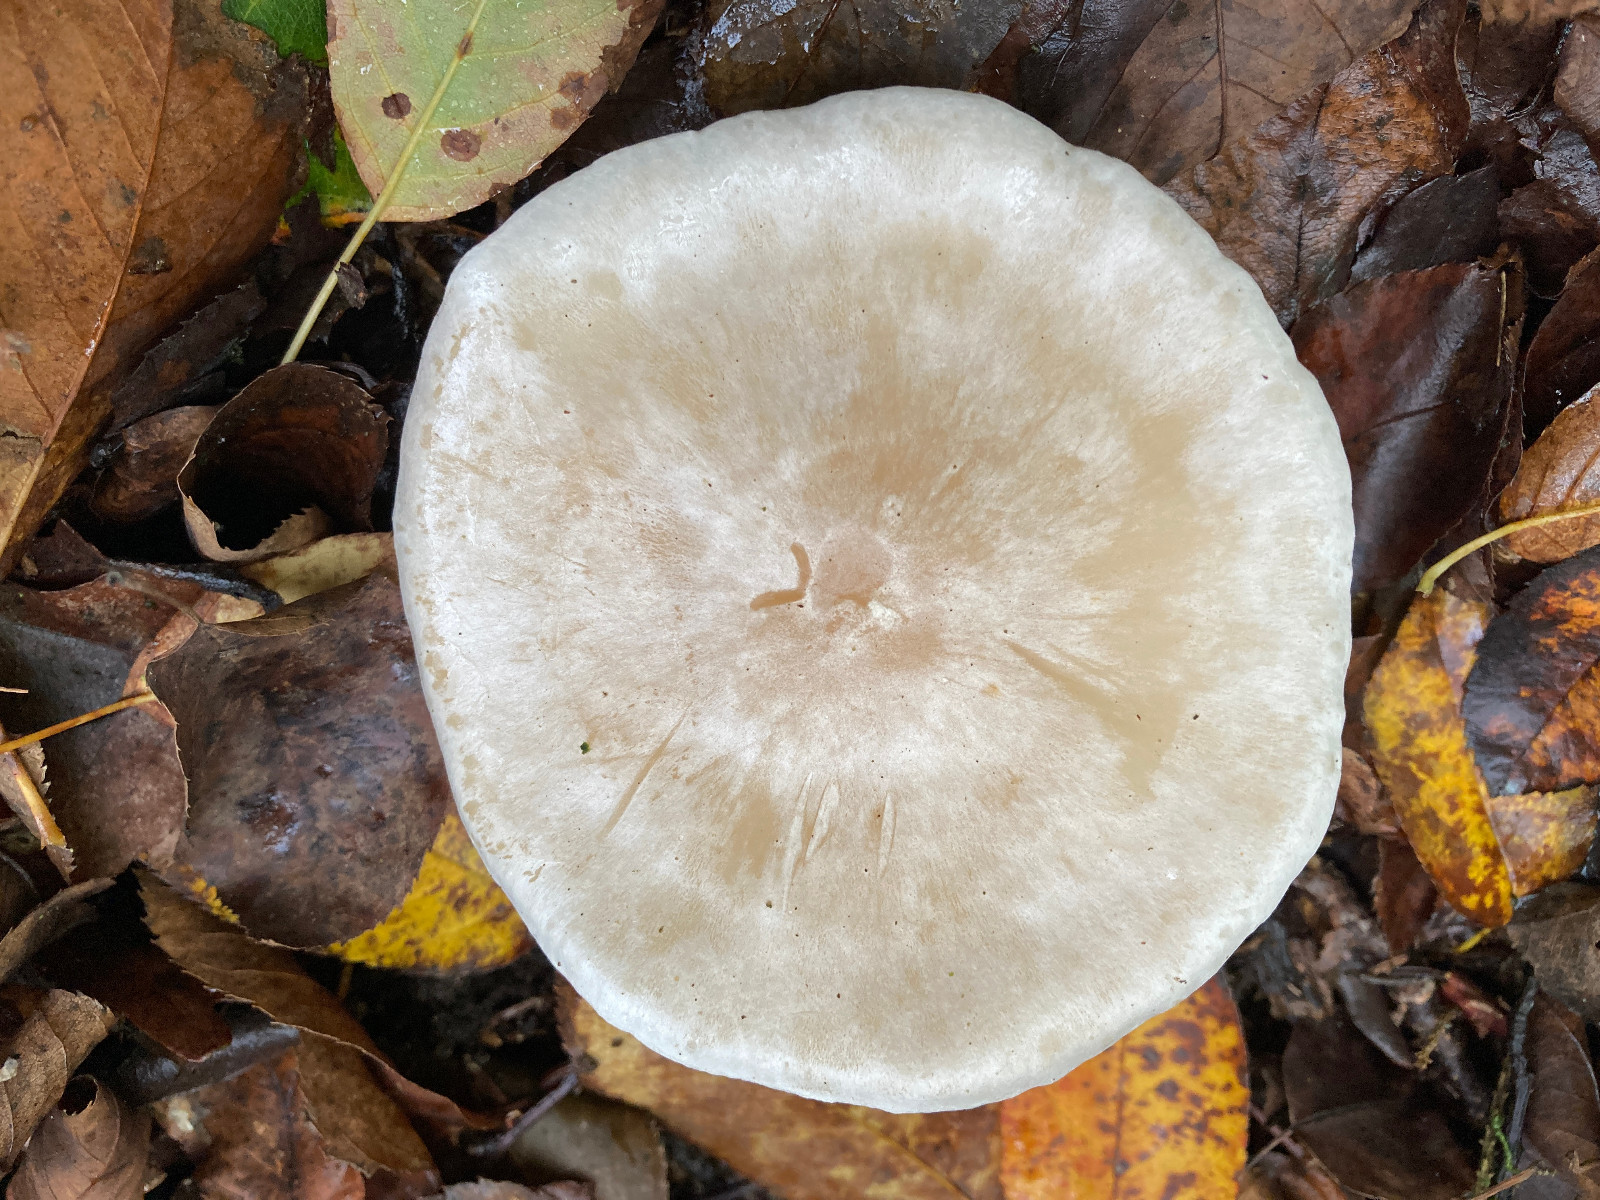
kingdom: Fungi
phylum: Basidiomycota
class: Agaricomycetes
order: Agaricales
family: Tricholomataceae
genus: Clitocybe
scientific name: Clitocybe
